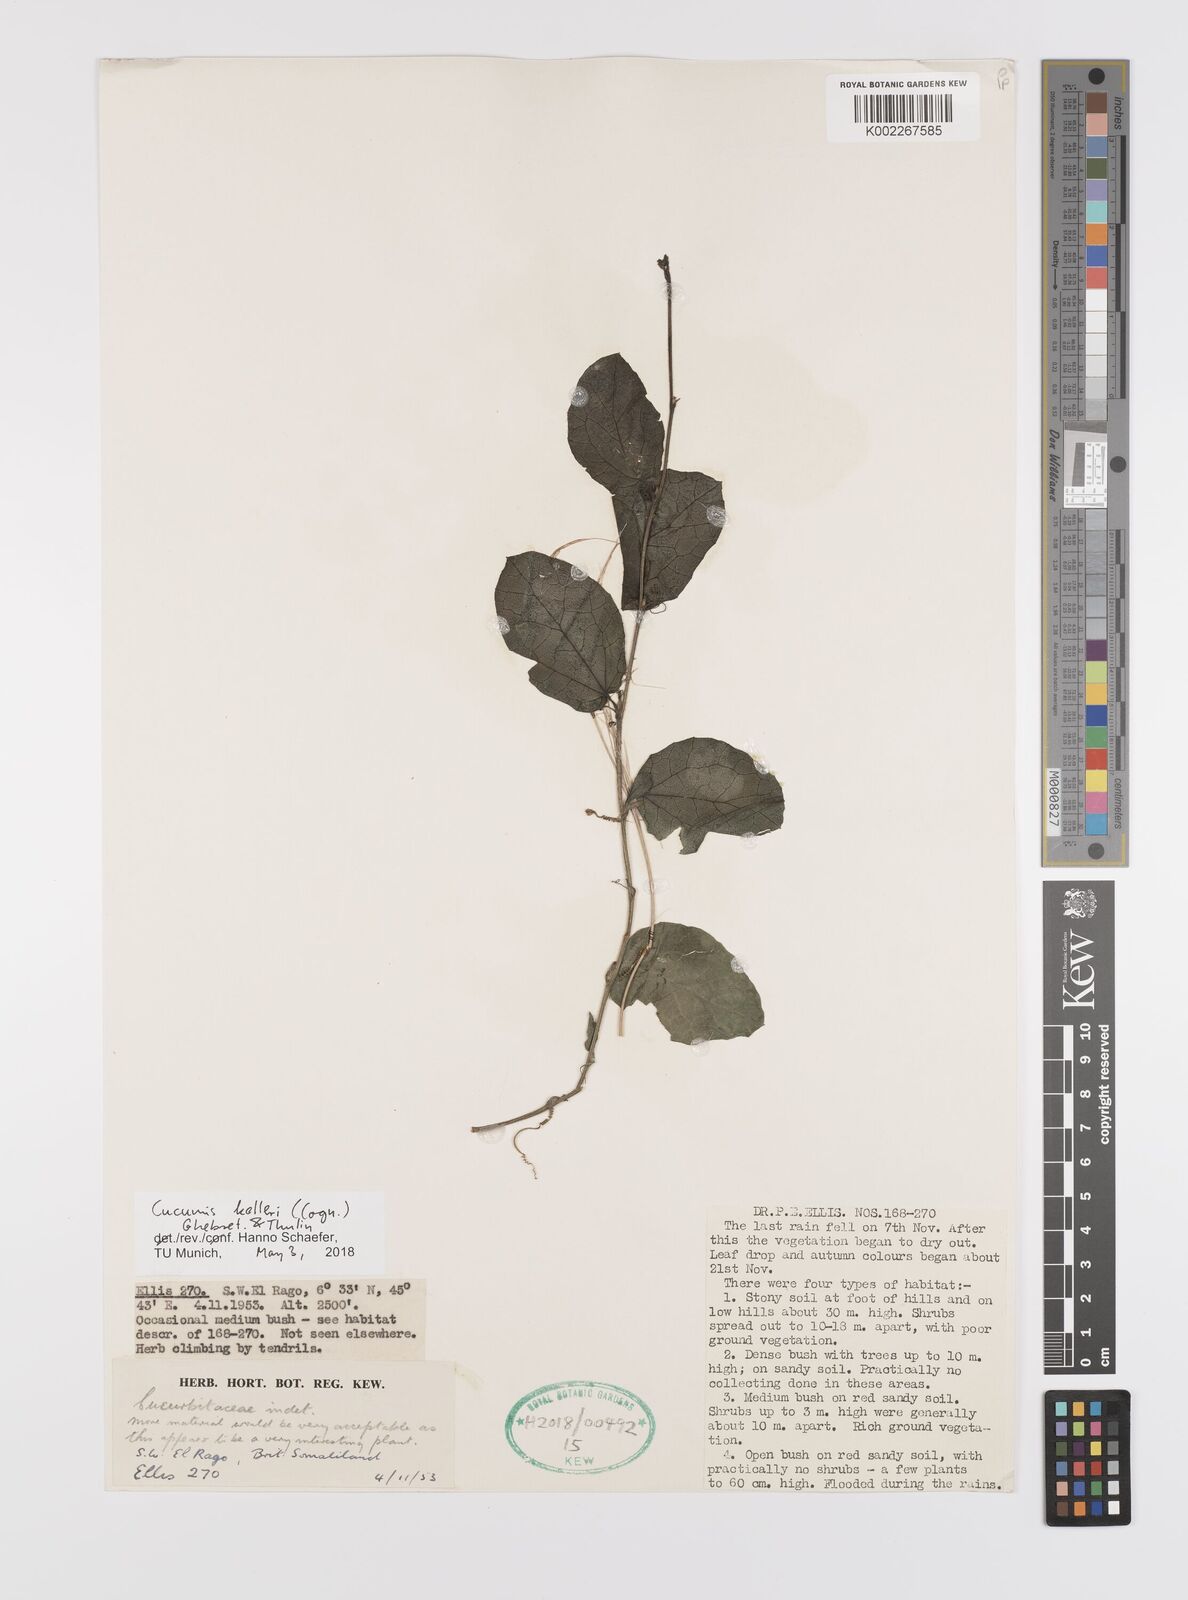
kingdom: Plantae
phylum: Tracheophyta
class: Magnoliopsida
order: Cucurbitales
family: Cucurbitaceae
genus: Cucumis
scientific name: Cucumis kelleri
